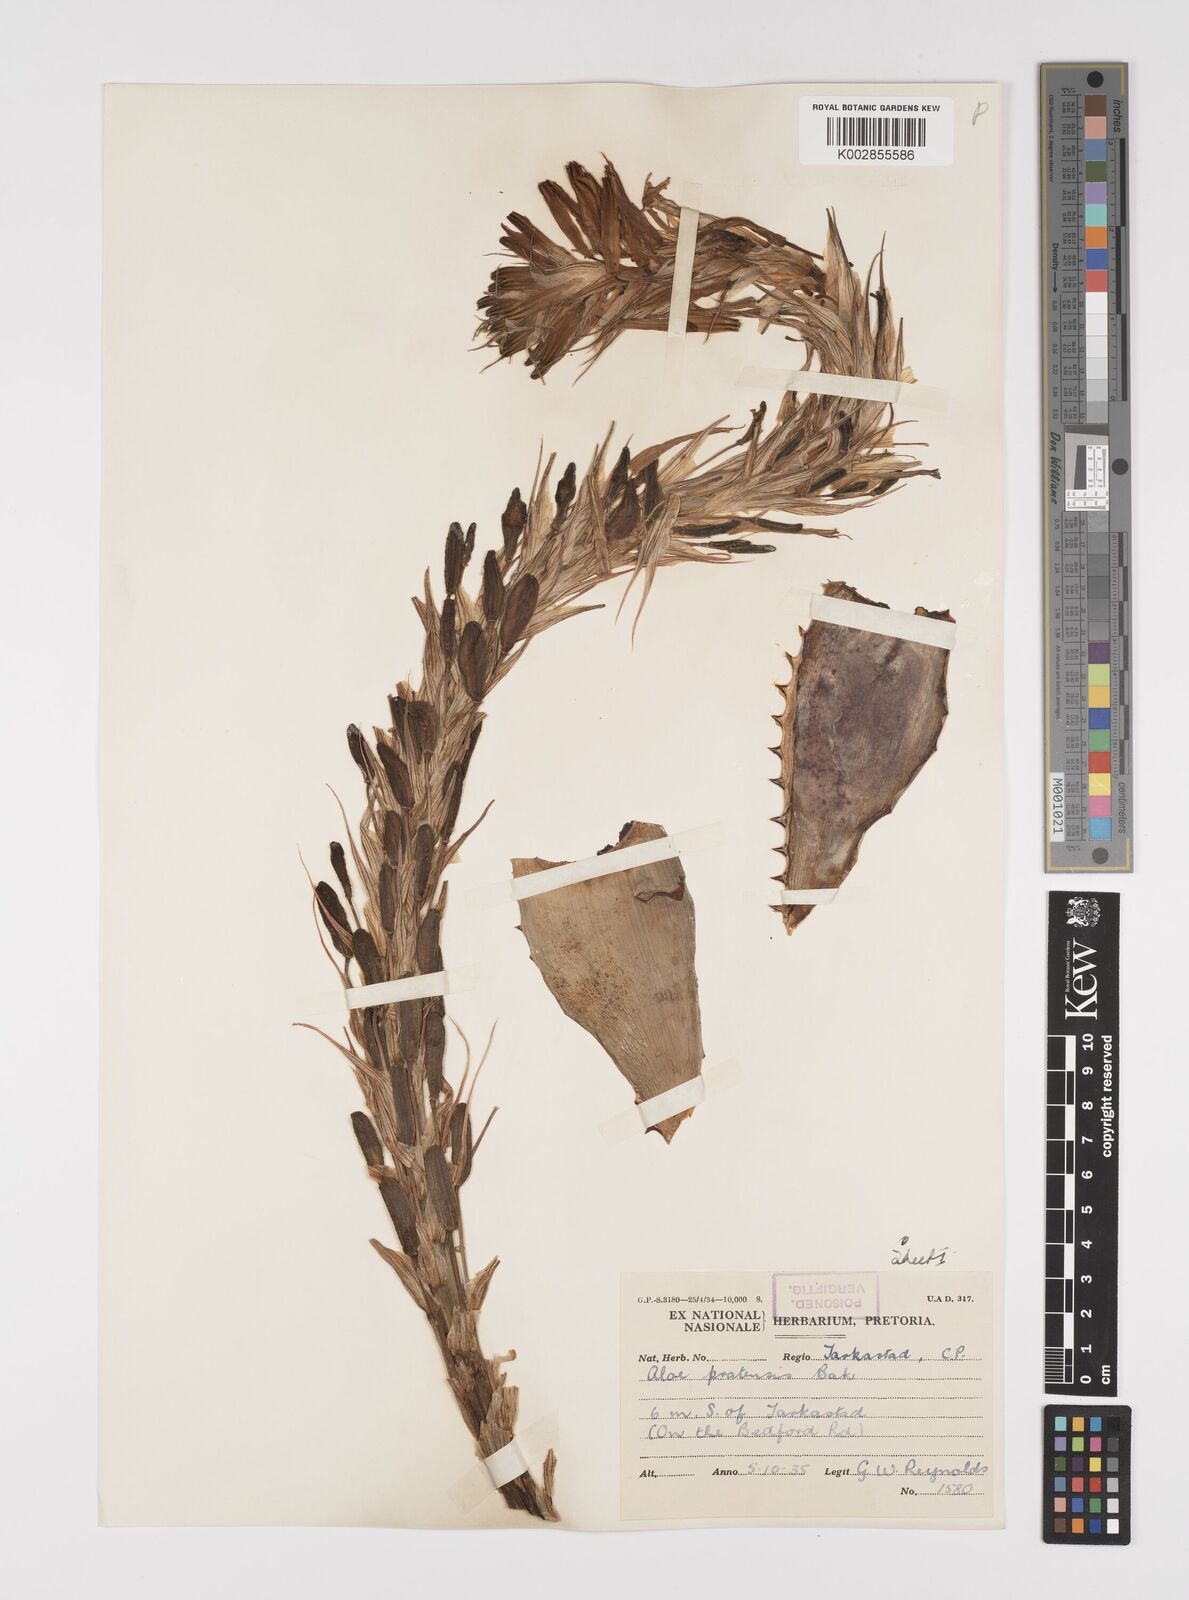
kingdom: Plantae
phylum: Tracheophyta
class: Liliopsida
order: Asparagales
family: Asphodelaceae
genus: Aloe
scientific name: Aloe pratensis
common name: Meadow aloe
